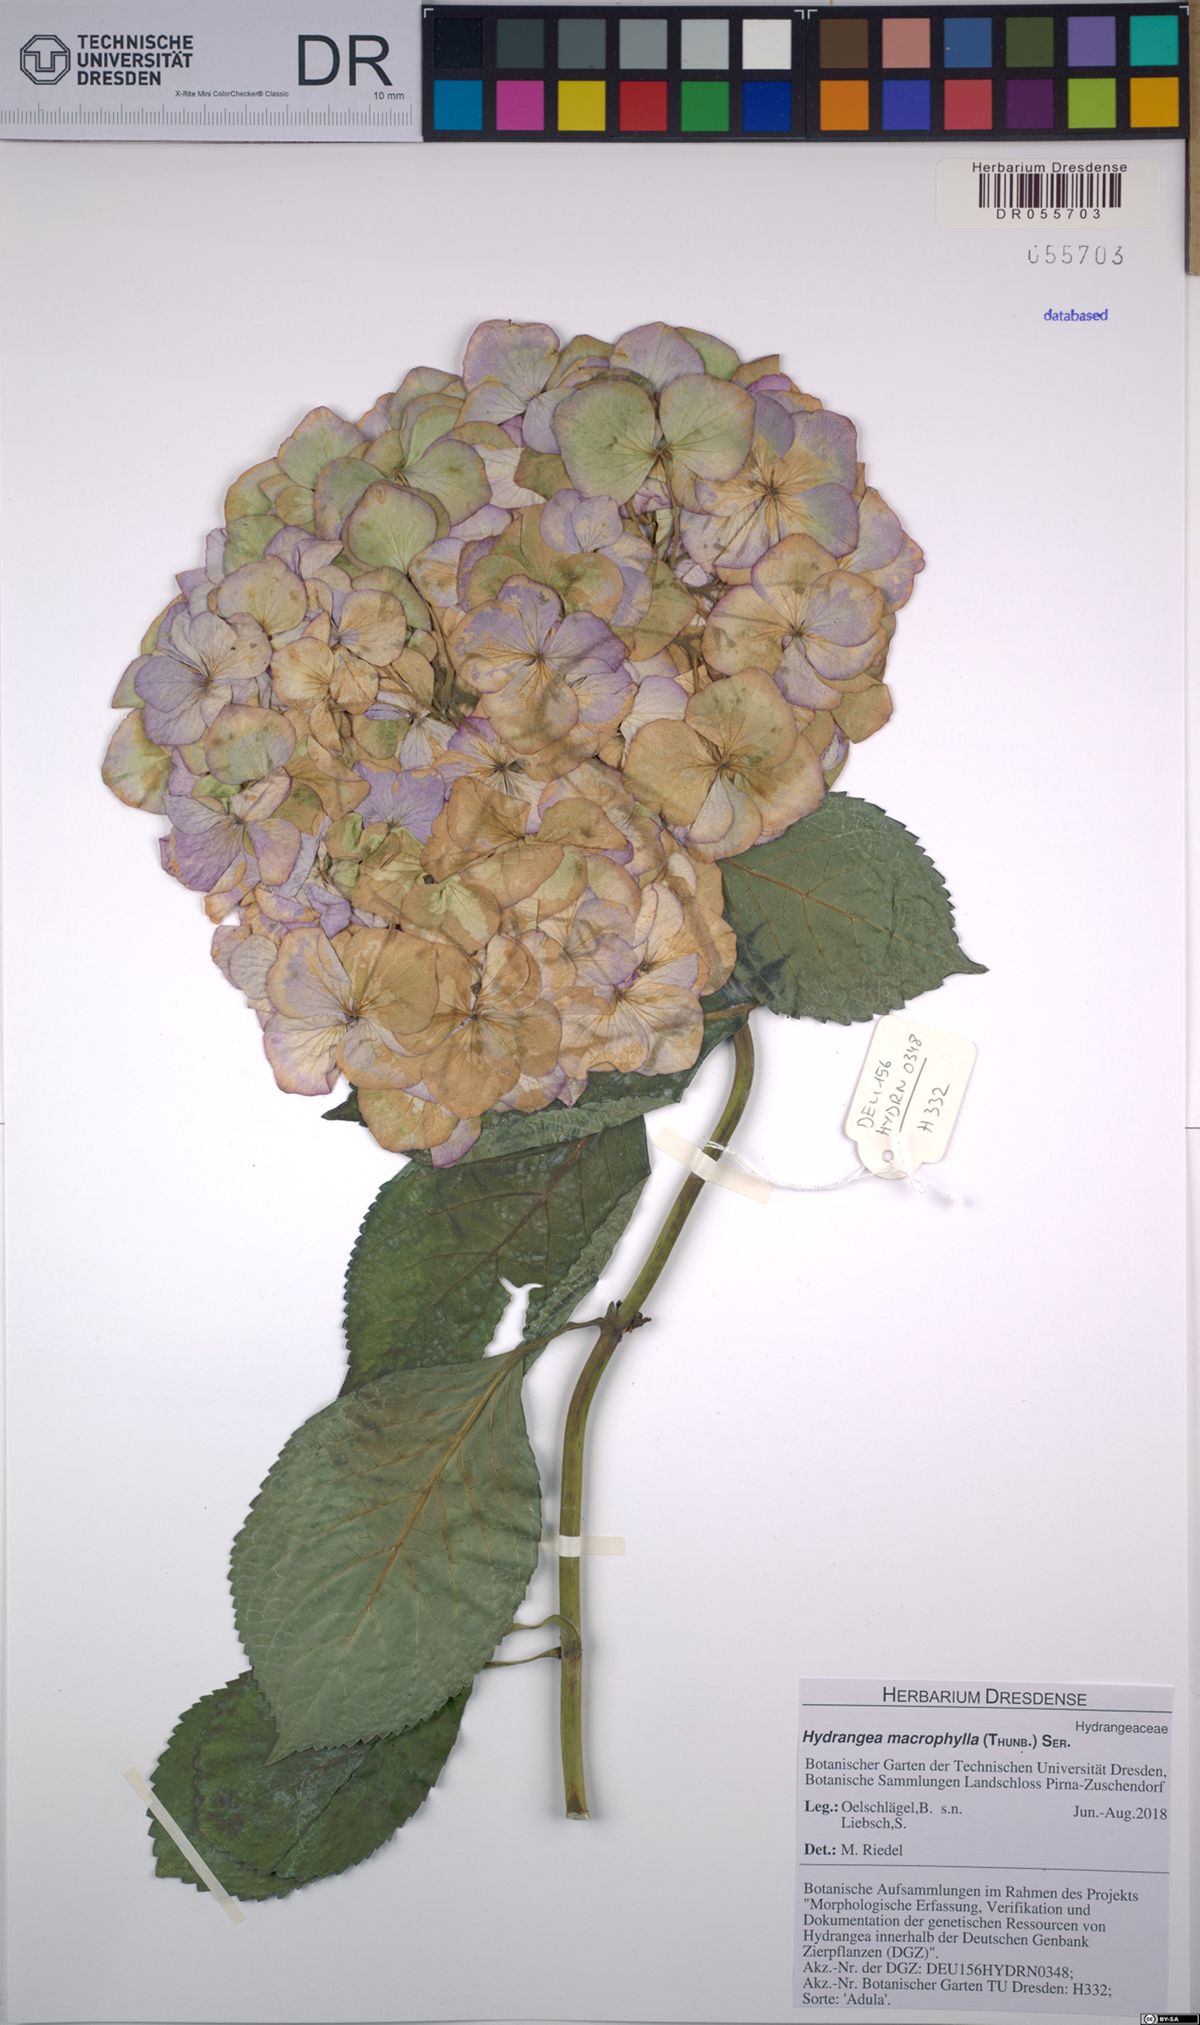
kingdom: Plantae
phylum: Tracheophyta
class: Magnoliopsida
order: Cornales
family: Hydrangeaceae
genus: Hydrangea
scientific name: Hydrangea macrophylla
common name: Hydrangea
